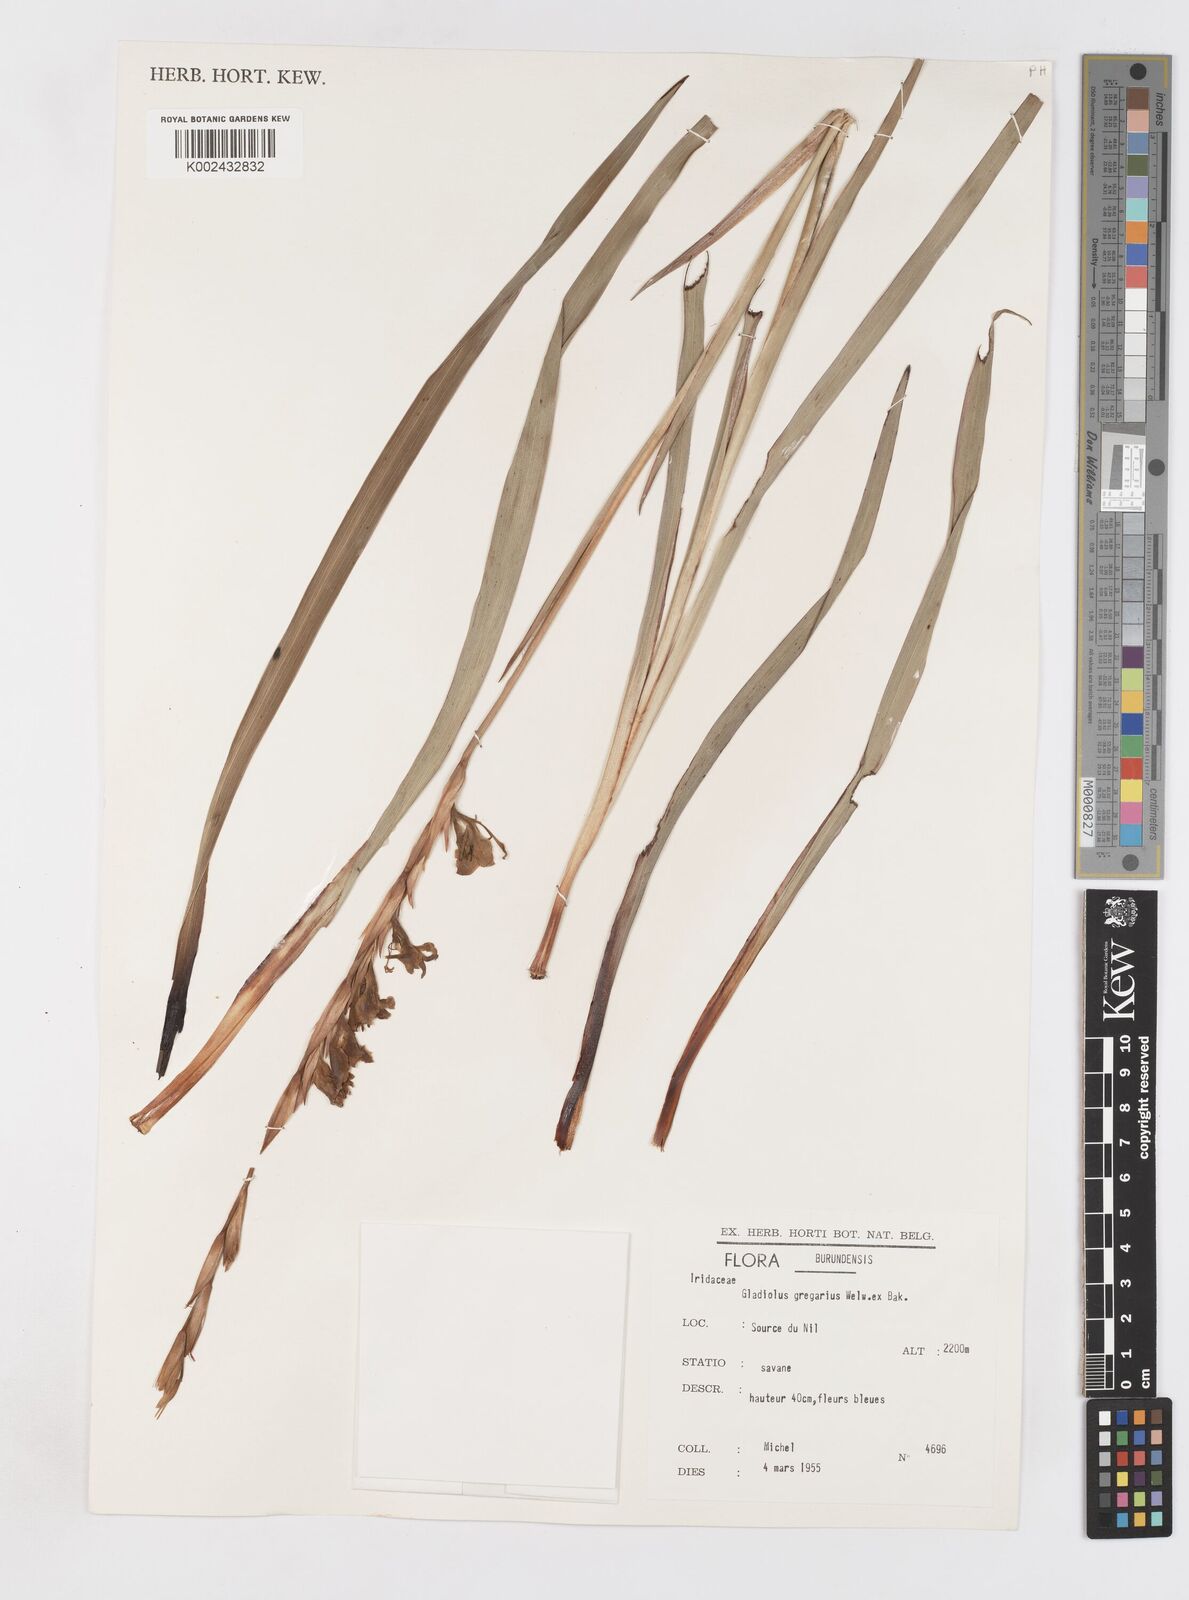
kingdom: Plantae
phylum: Tracheophyta
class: Liliopsida
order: Asparagales
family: Iridaceae
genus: Gladiolus
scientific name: Gladiolus gregarius
